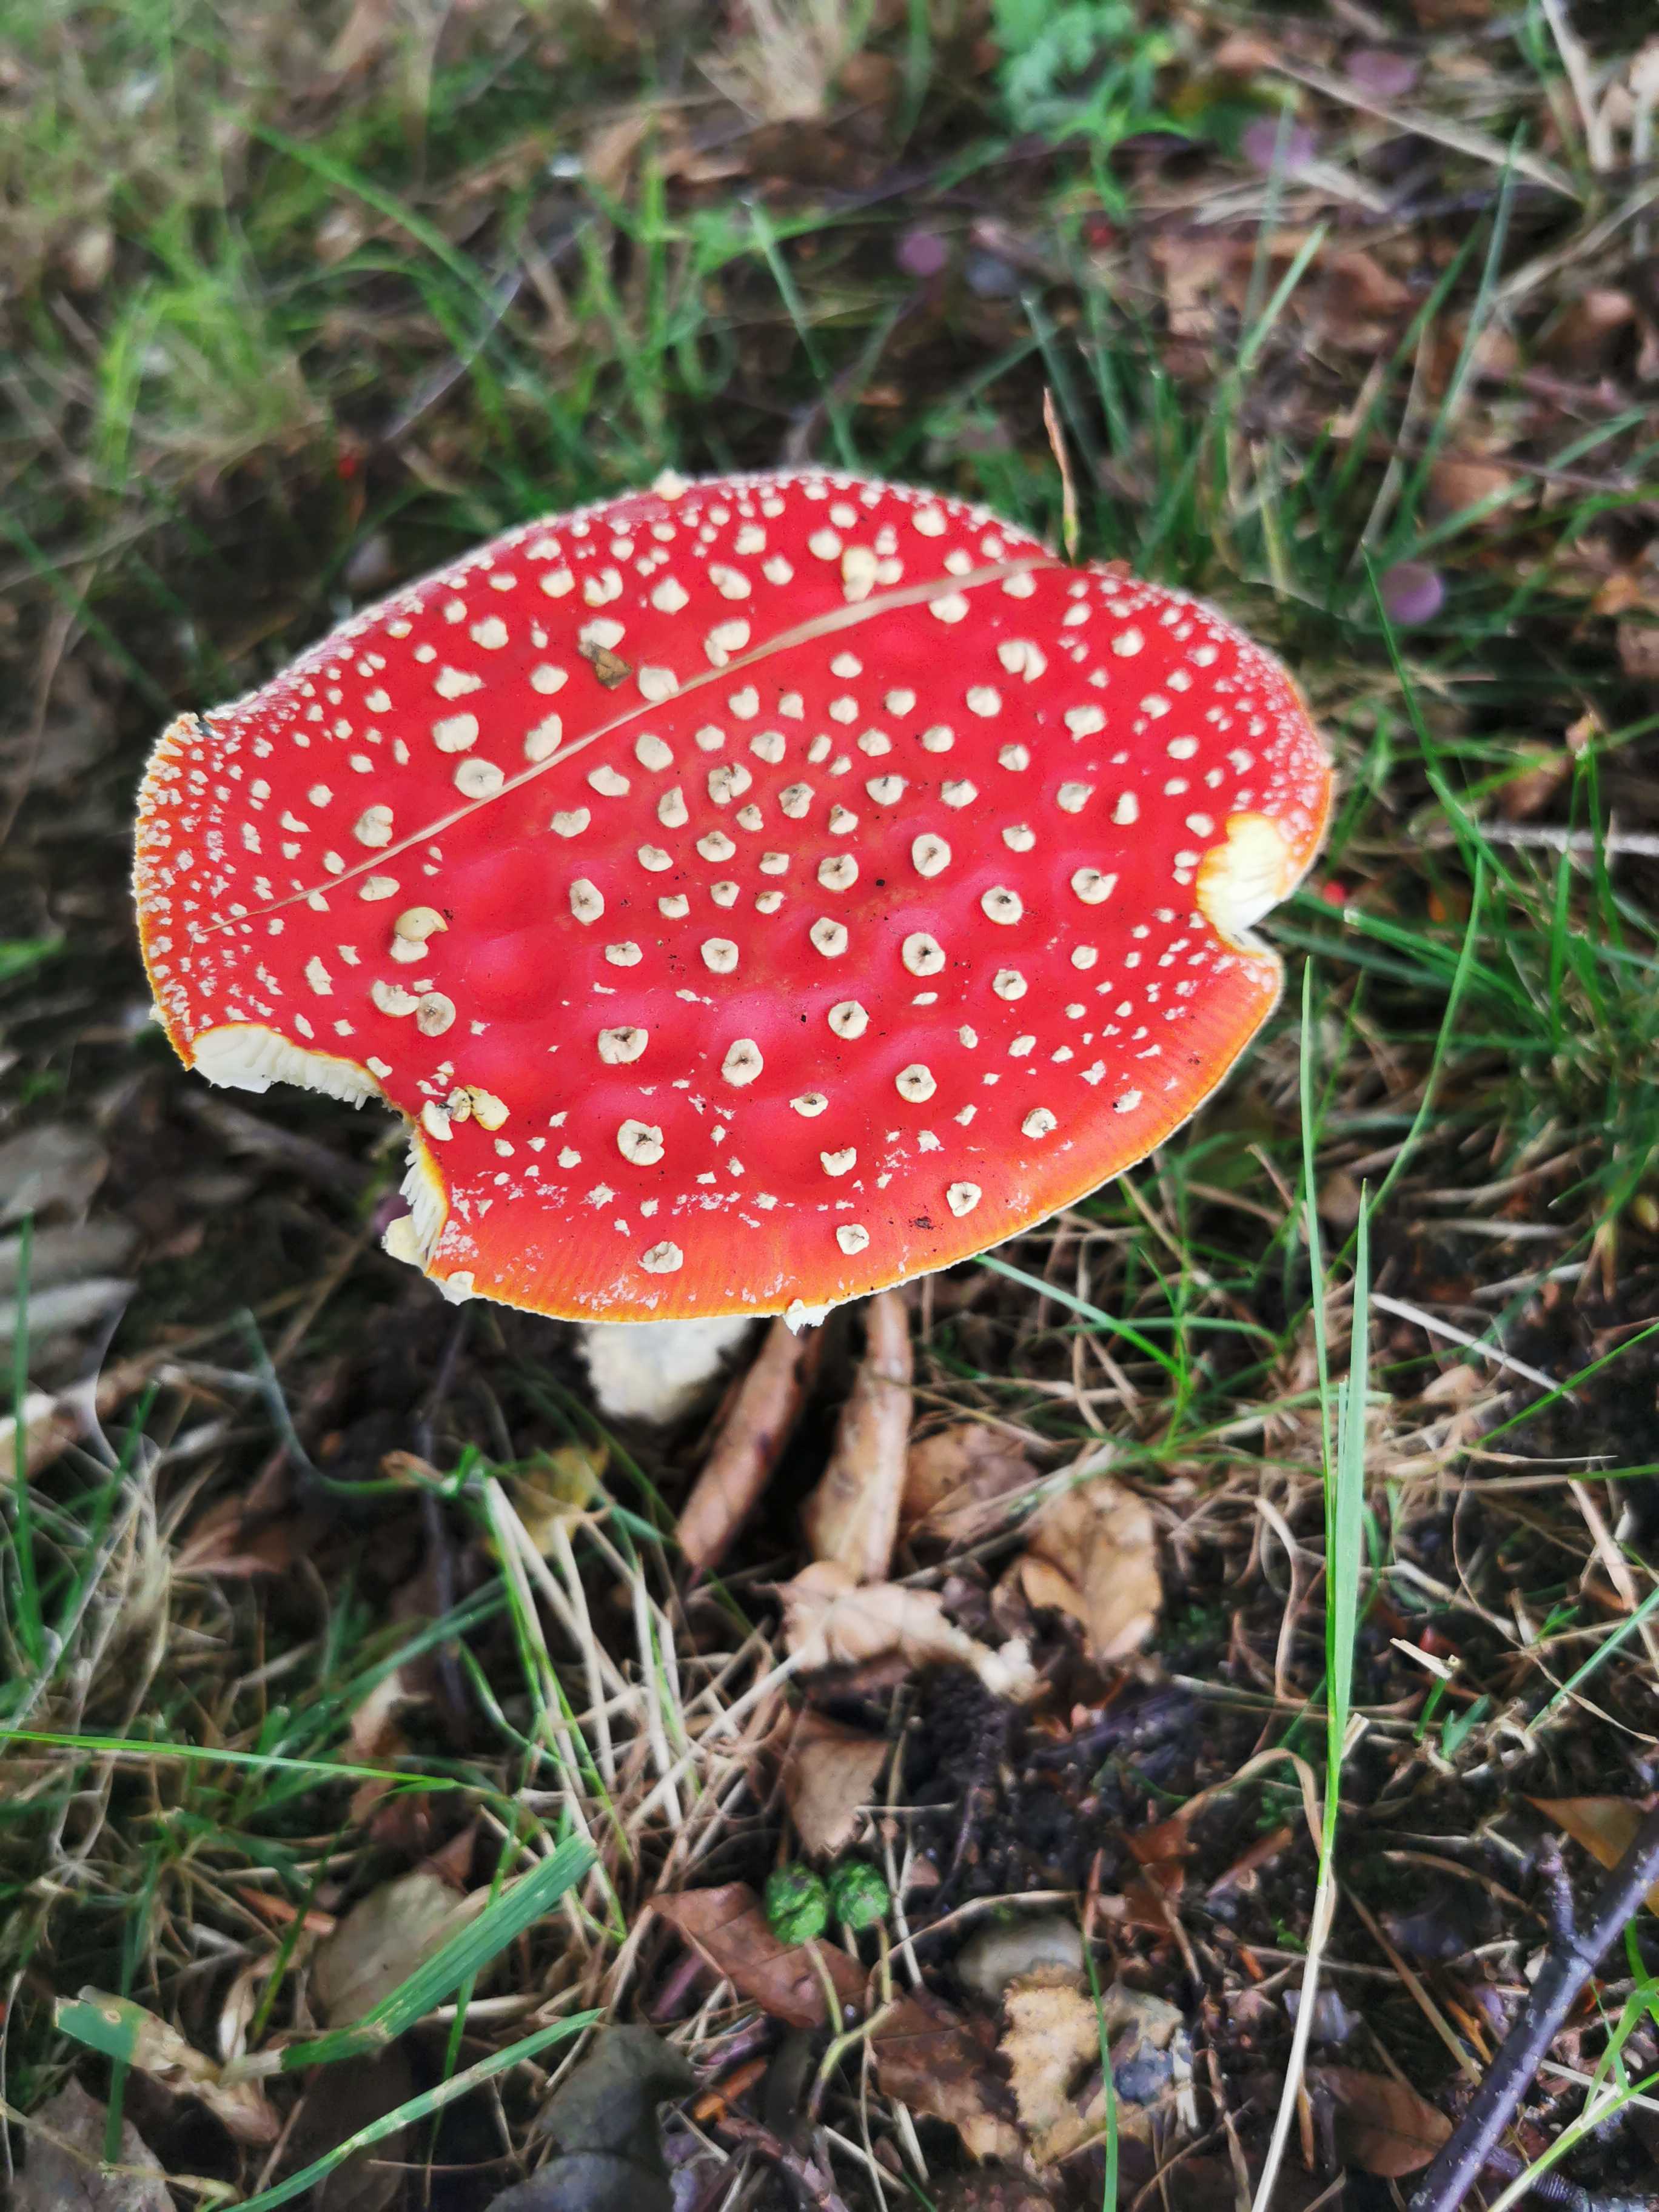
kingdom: Fungi
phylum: Basidiomycota
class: Agaricomycetes
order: Agaricales
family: Amanitaceae
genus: Amanita
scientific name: Amanita muscaria
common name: rød fluesvamp
